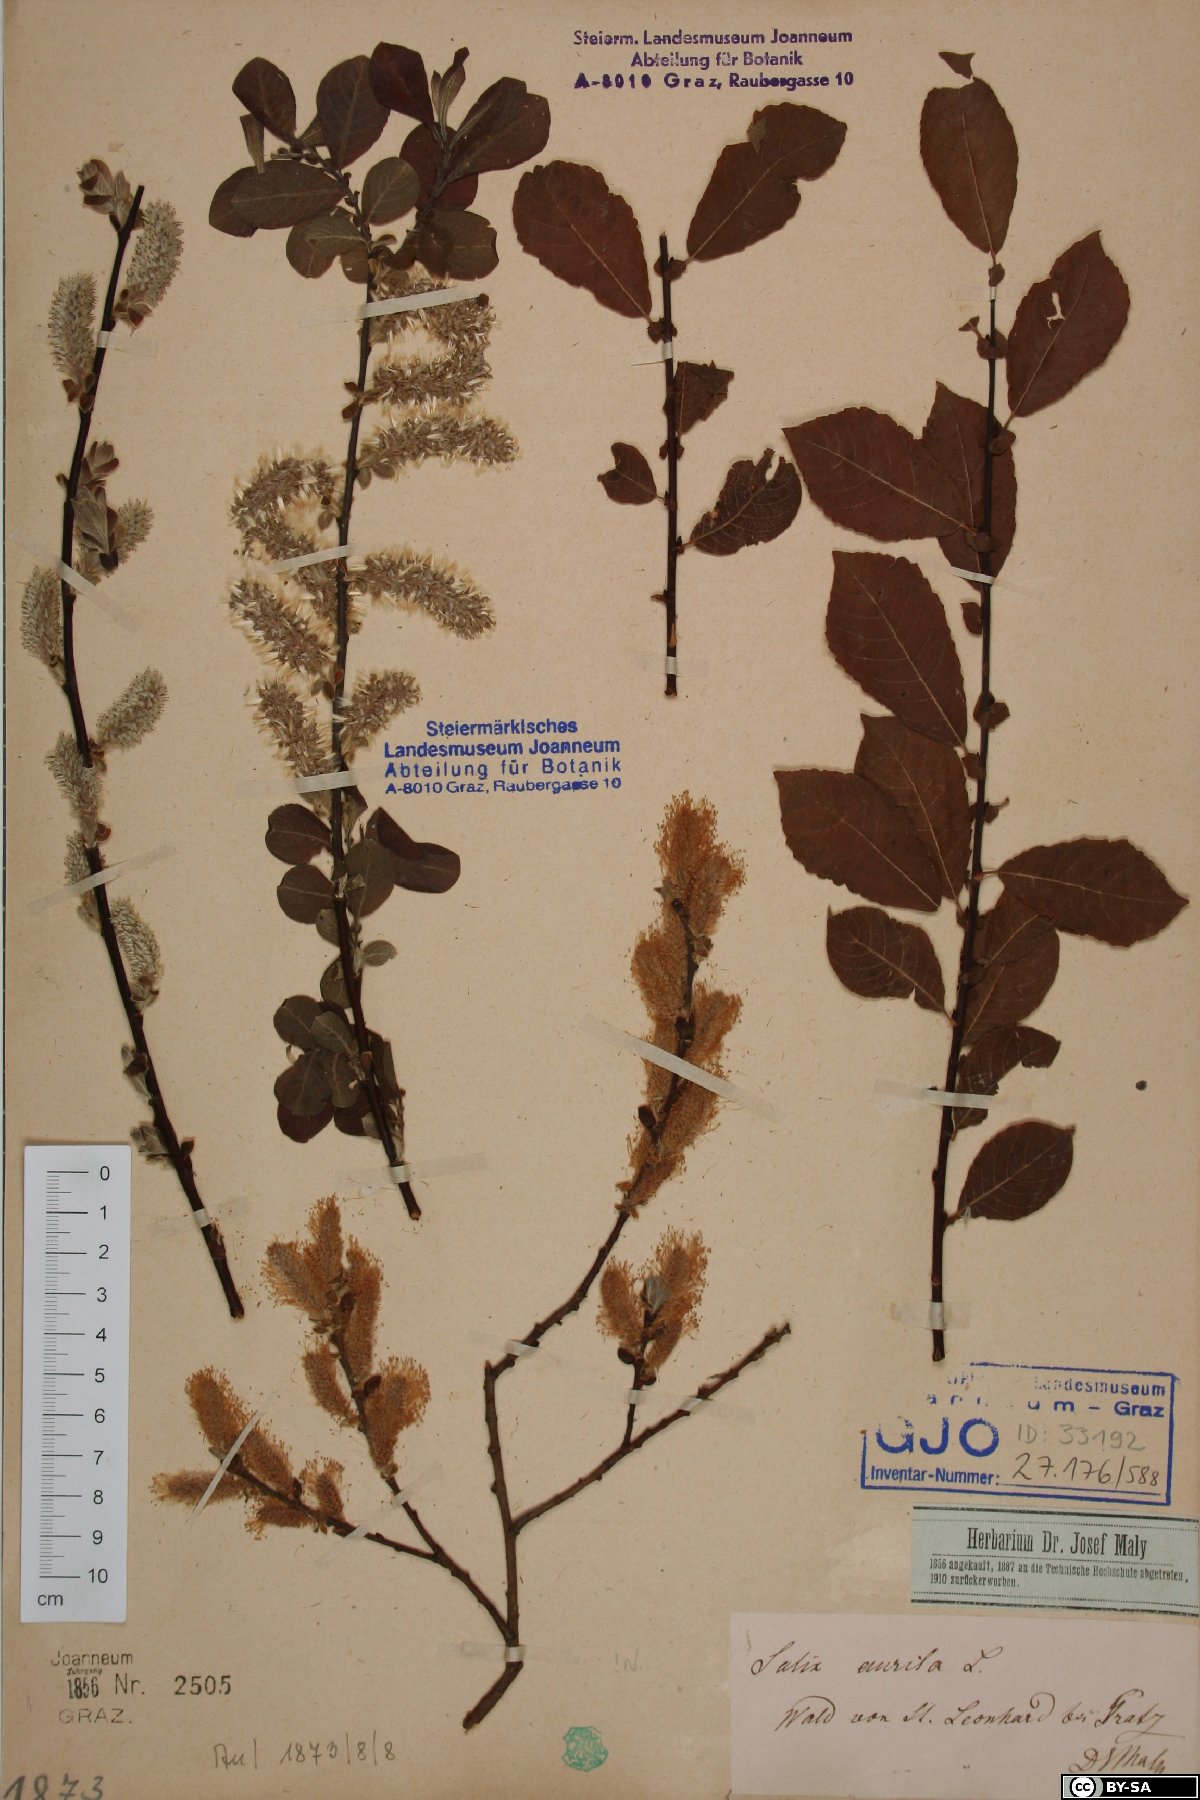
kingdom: Plantae
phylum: Tracheophyta
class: Magnoliopsida
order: Malpighiales
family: Salicaceae
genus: Salix
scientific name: Salix aurita
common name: Eared willow
